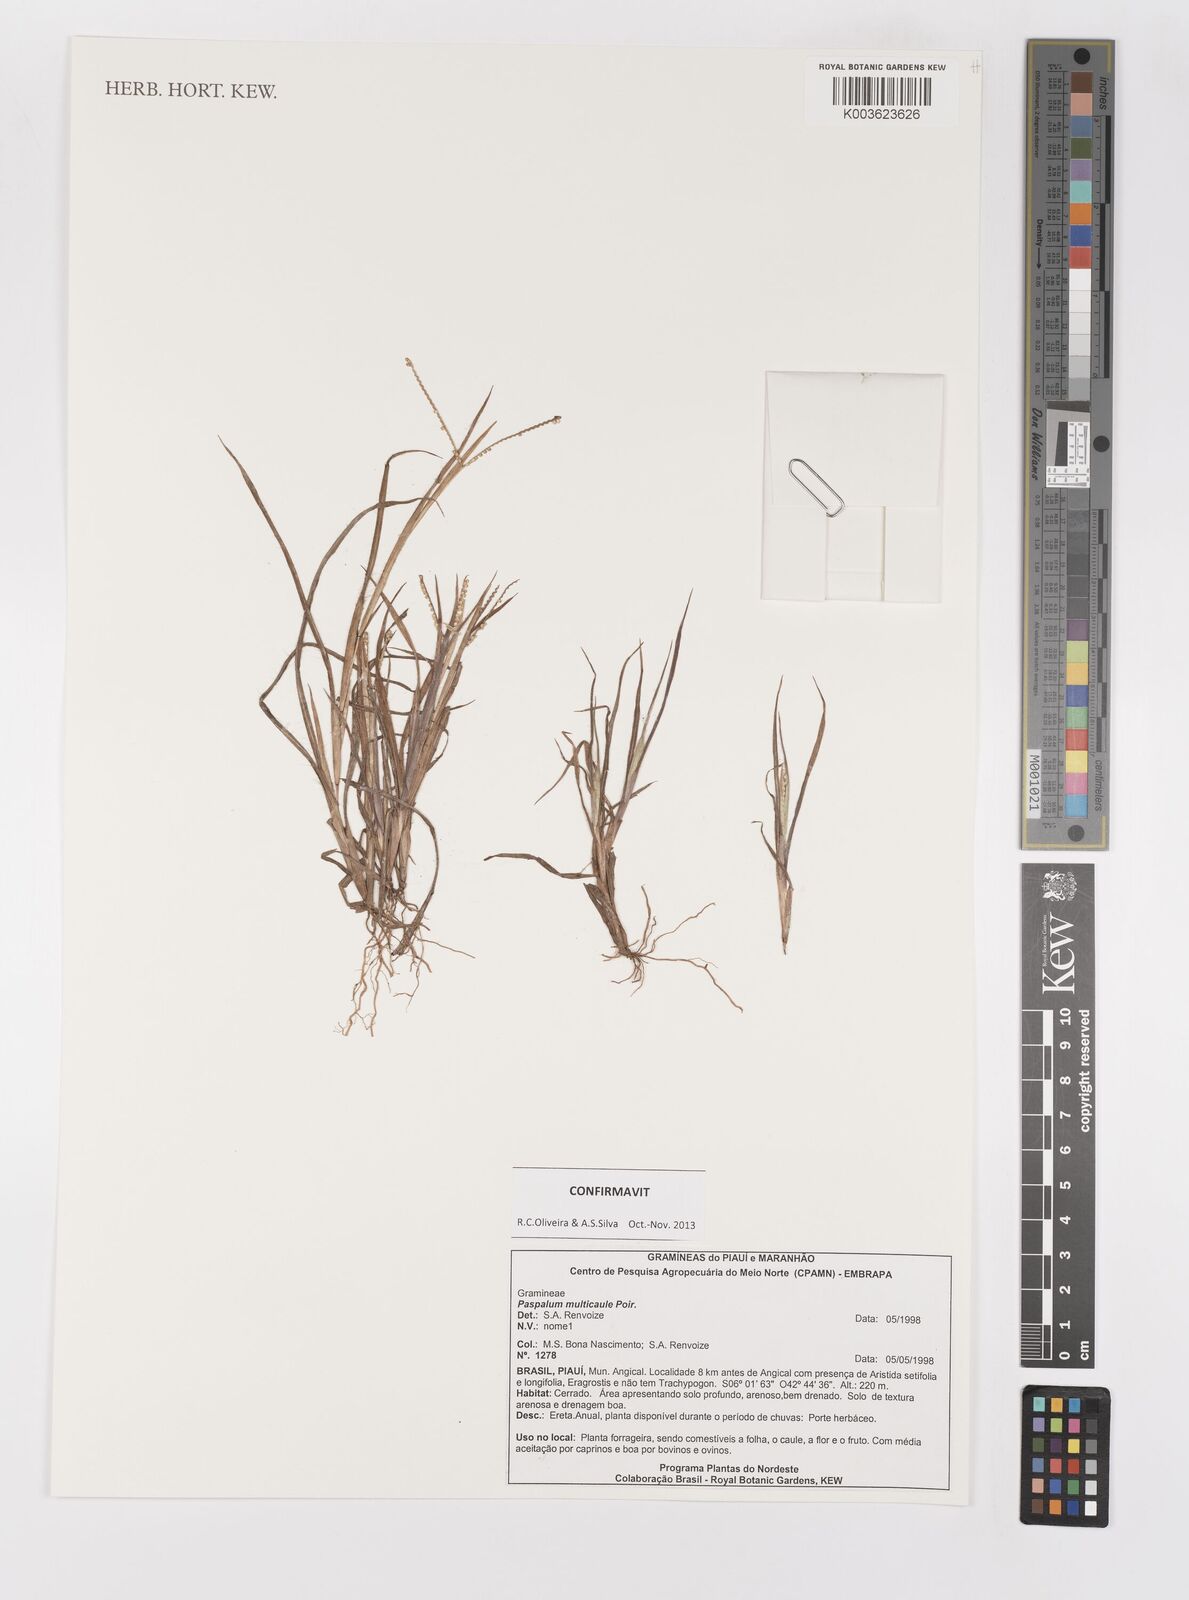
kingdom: Plantae
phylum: Tracheophyta
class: Liliopsida
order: Poales
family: Poaceae
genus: Paspalum
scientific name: Paspalum multicaule
